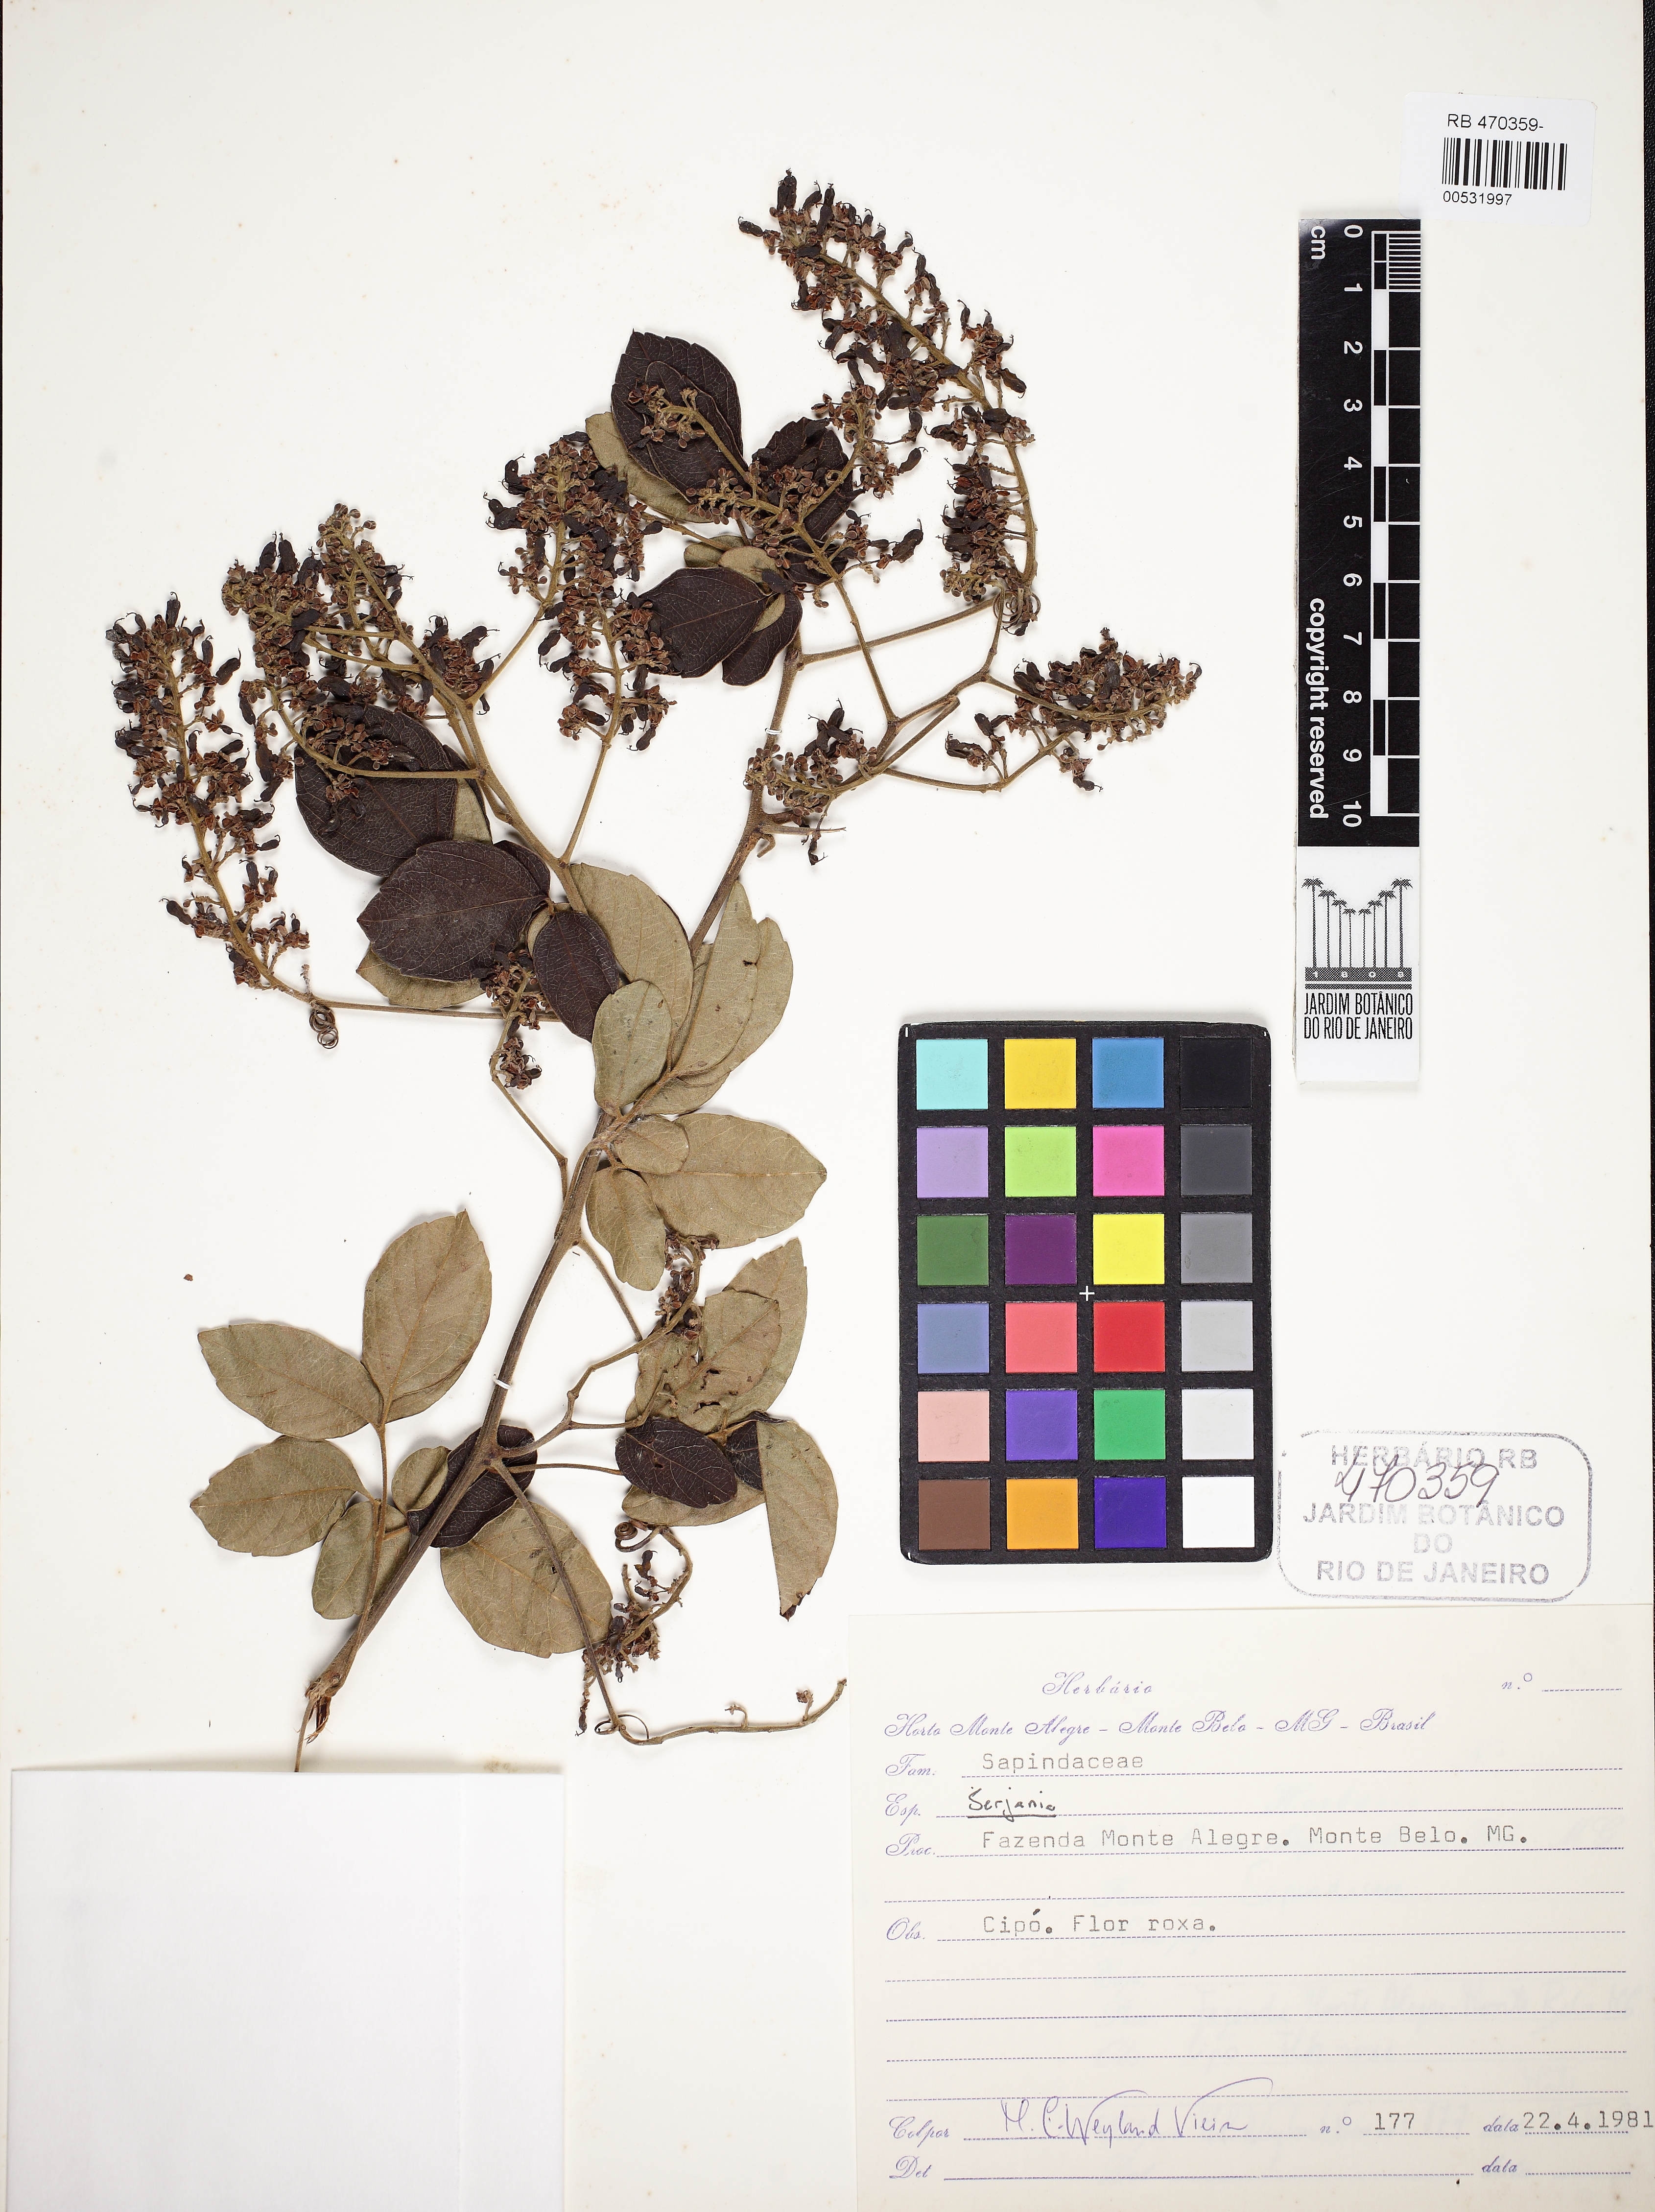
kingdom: Plantae
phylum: Tracheophyta
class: Magnoliopsida
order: Sapindales
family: Sapindaceae
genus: Serjania
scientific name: Serjania
